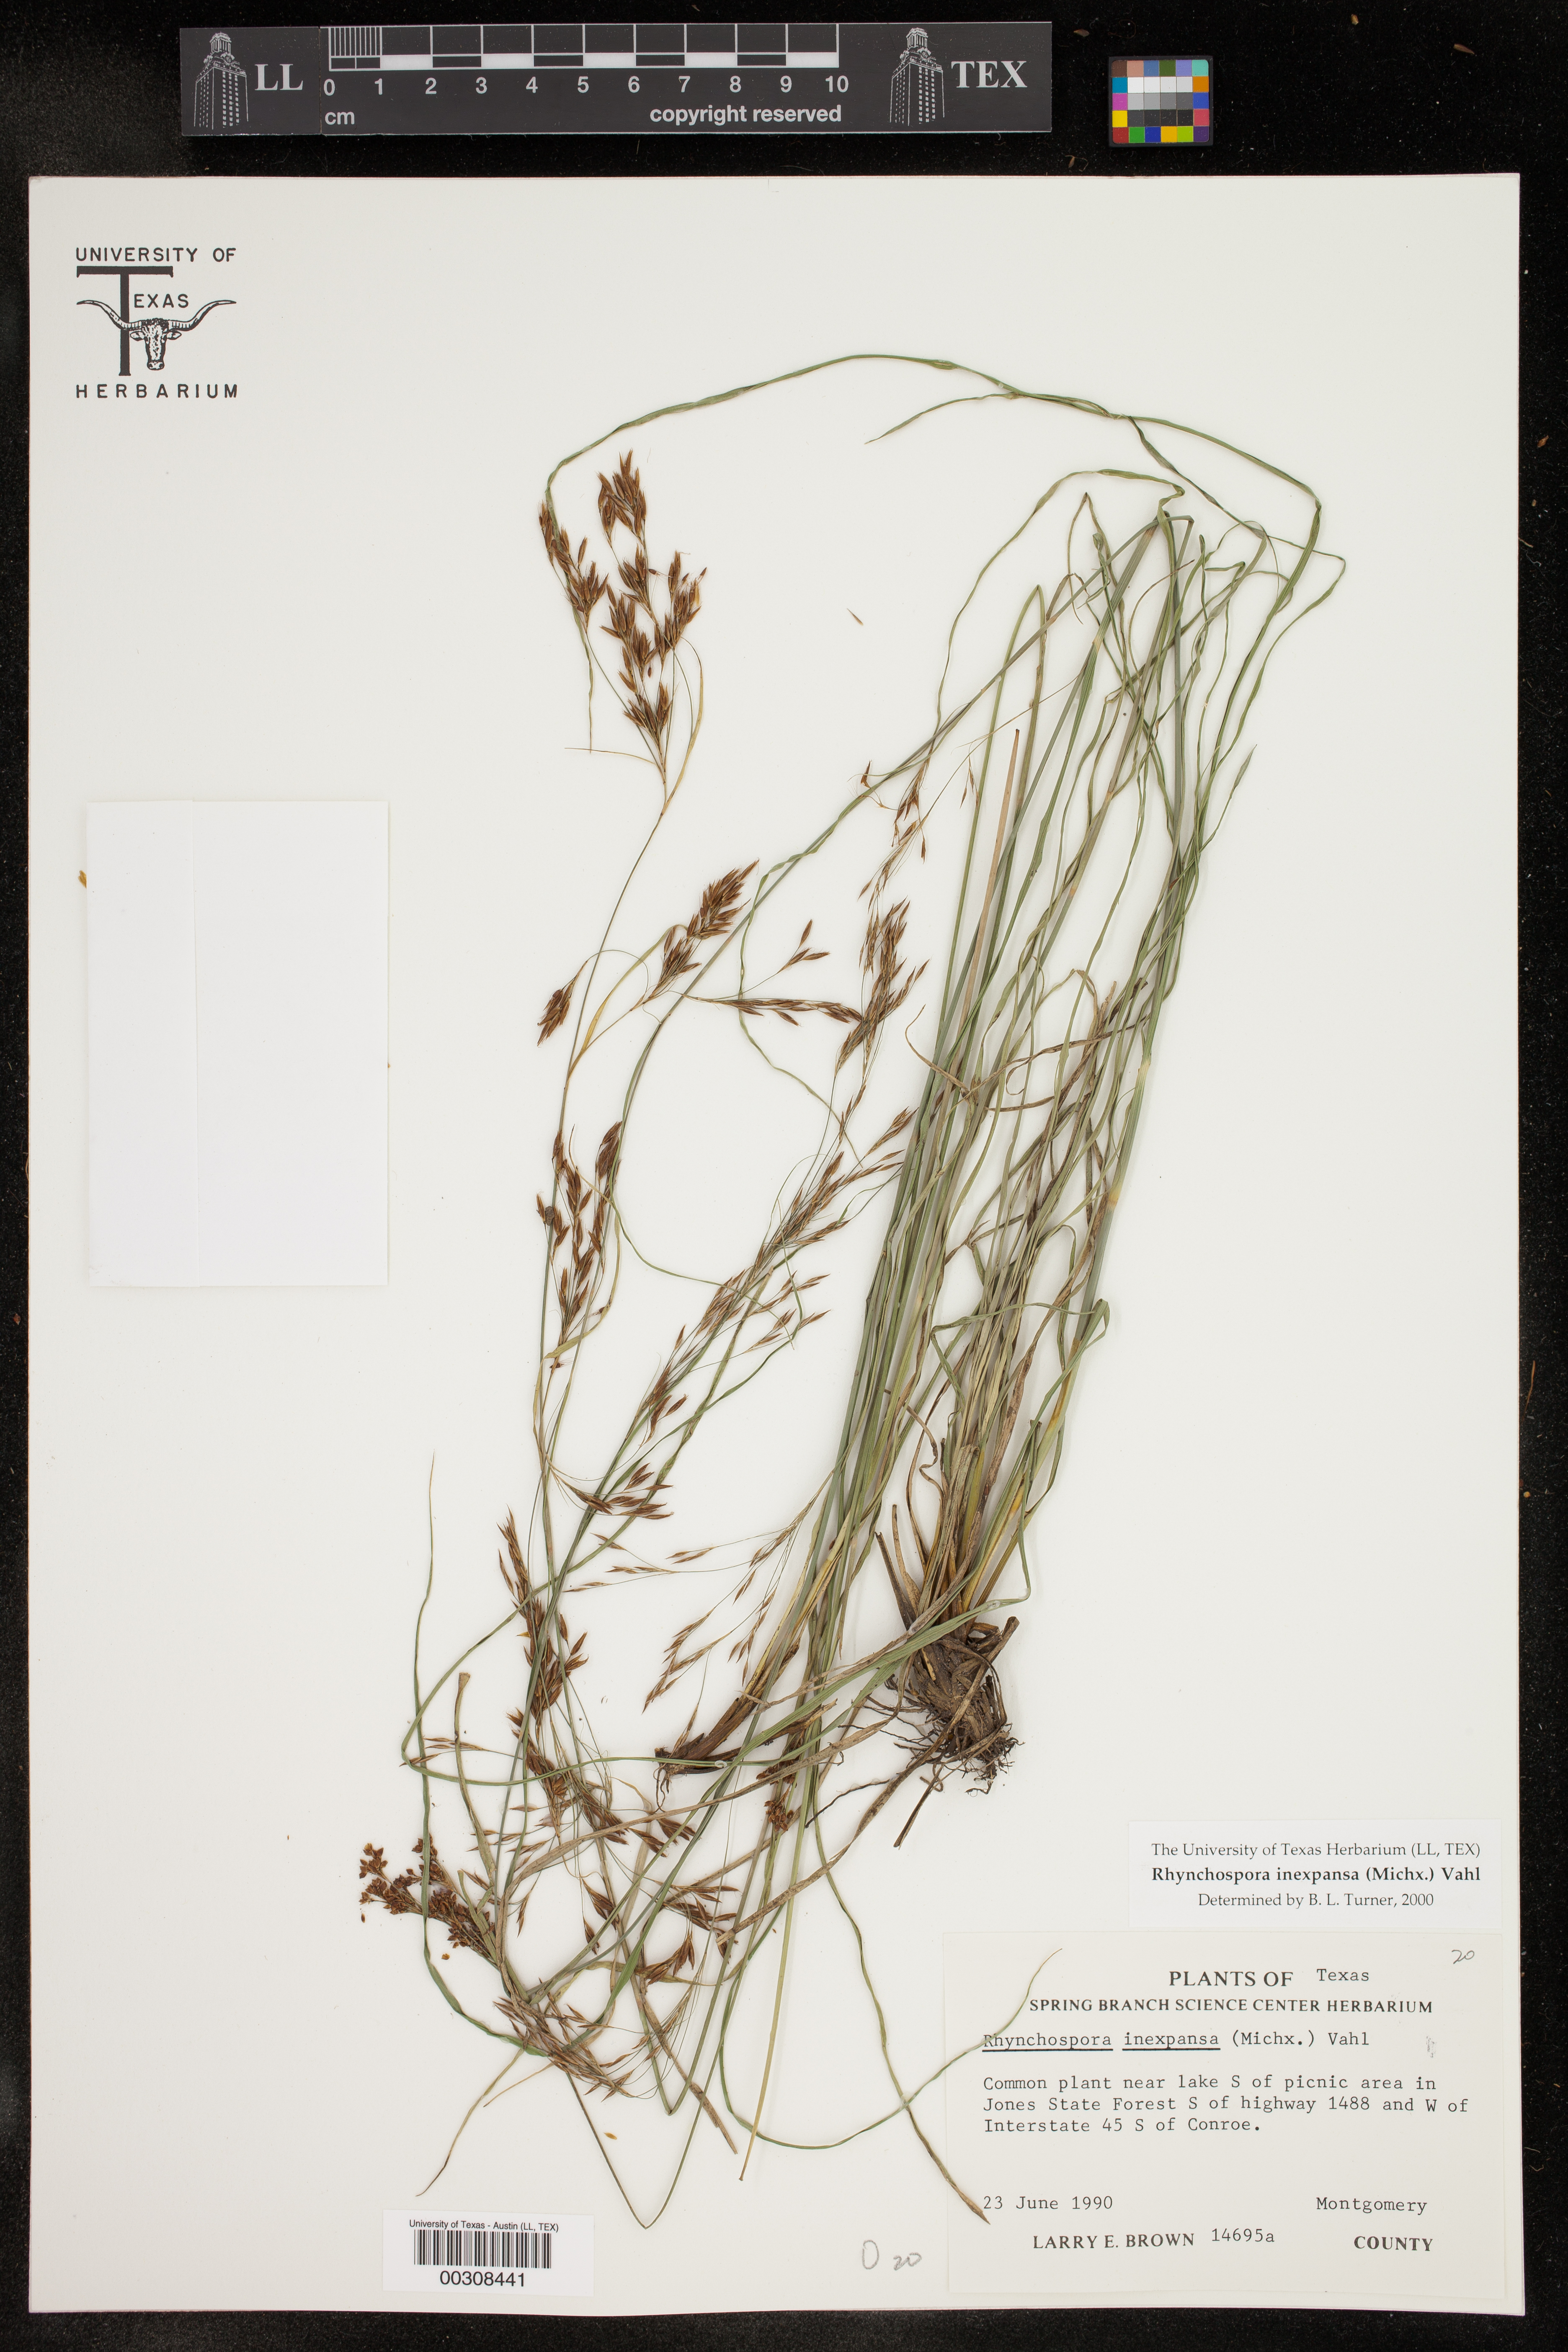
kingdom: Plantae
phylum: Tracheophyta
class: Liliopsida
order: Poales
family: Cyperaceae
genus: Rhynchospora
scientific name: Rhynchospora inexpansa
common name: Nodding beaksedge
